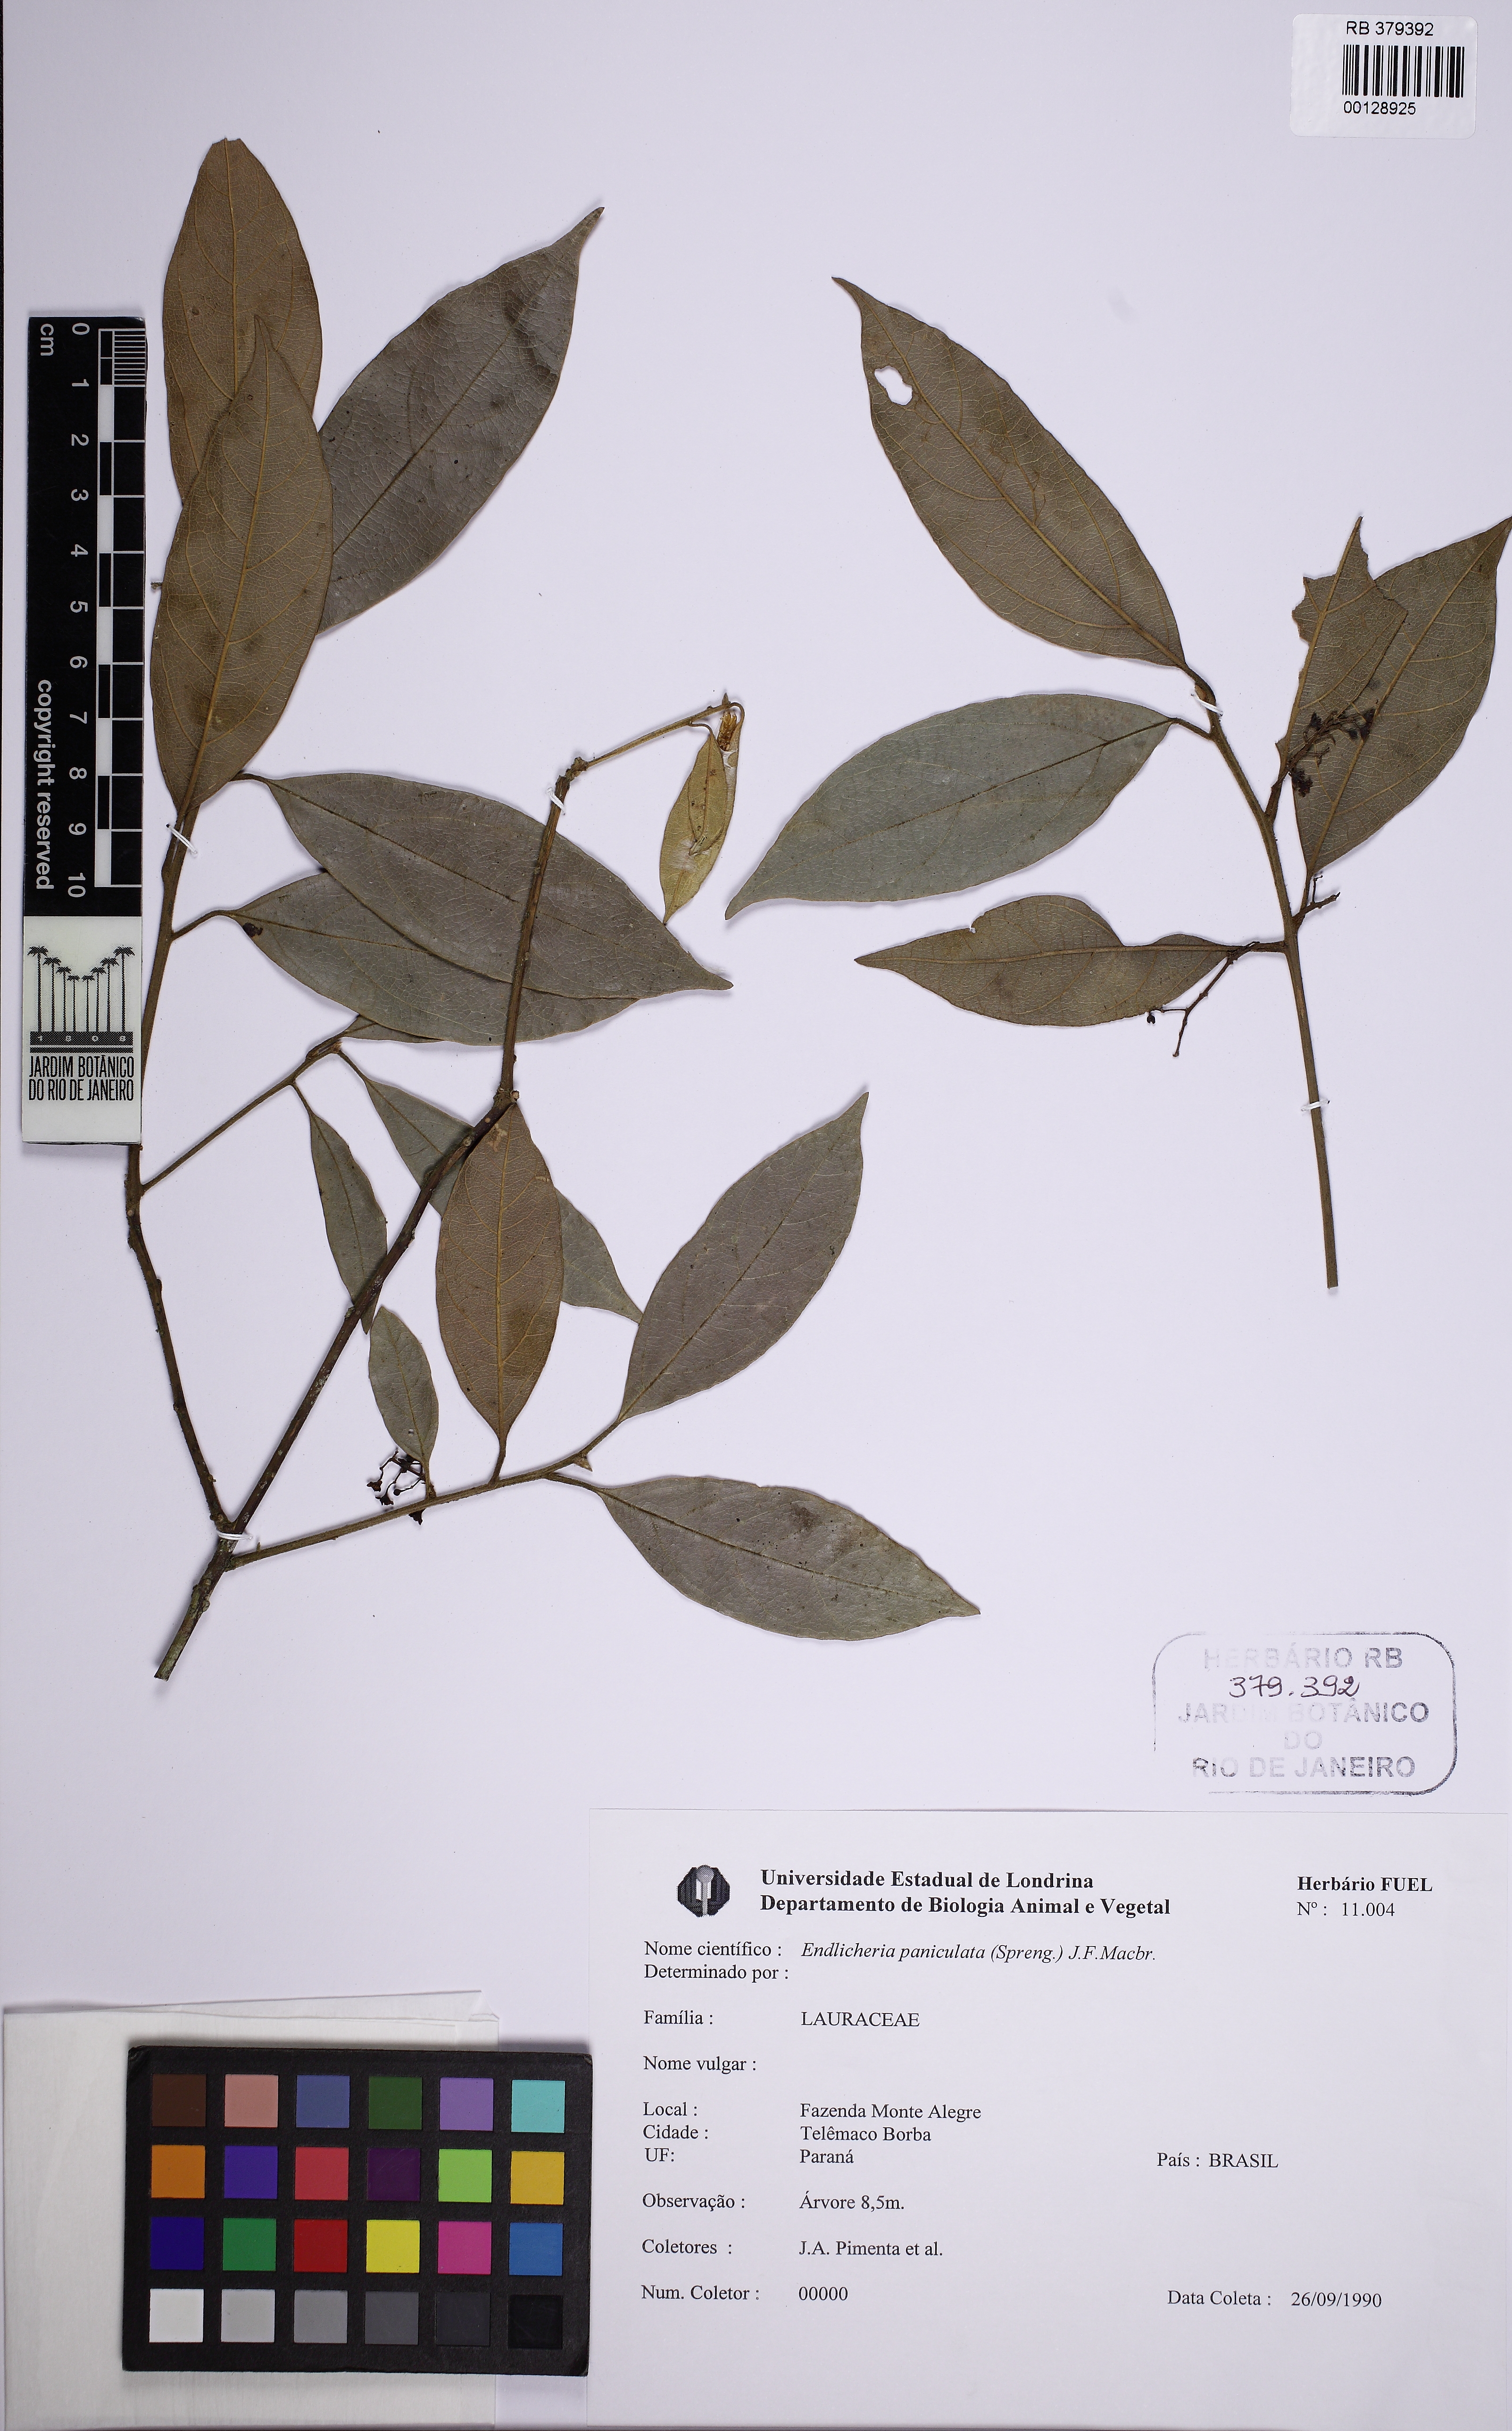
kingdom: Plantae
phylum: Tracheophyta
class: Magnoliopsida
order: Laurales
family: Lauraceae
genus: Endlicheria
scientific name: Endlicheria paniculata
